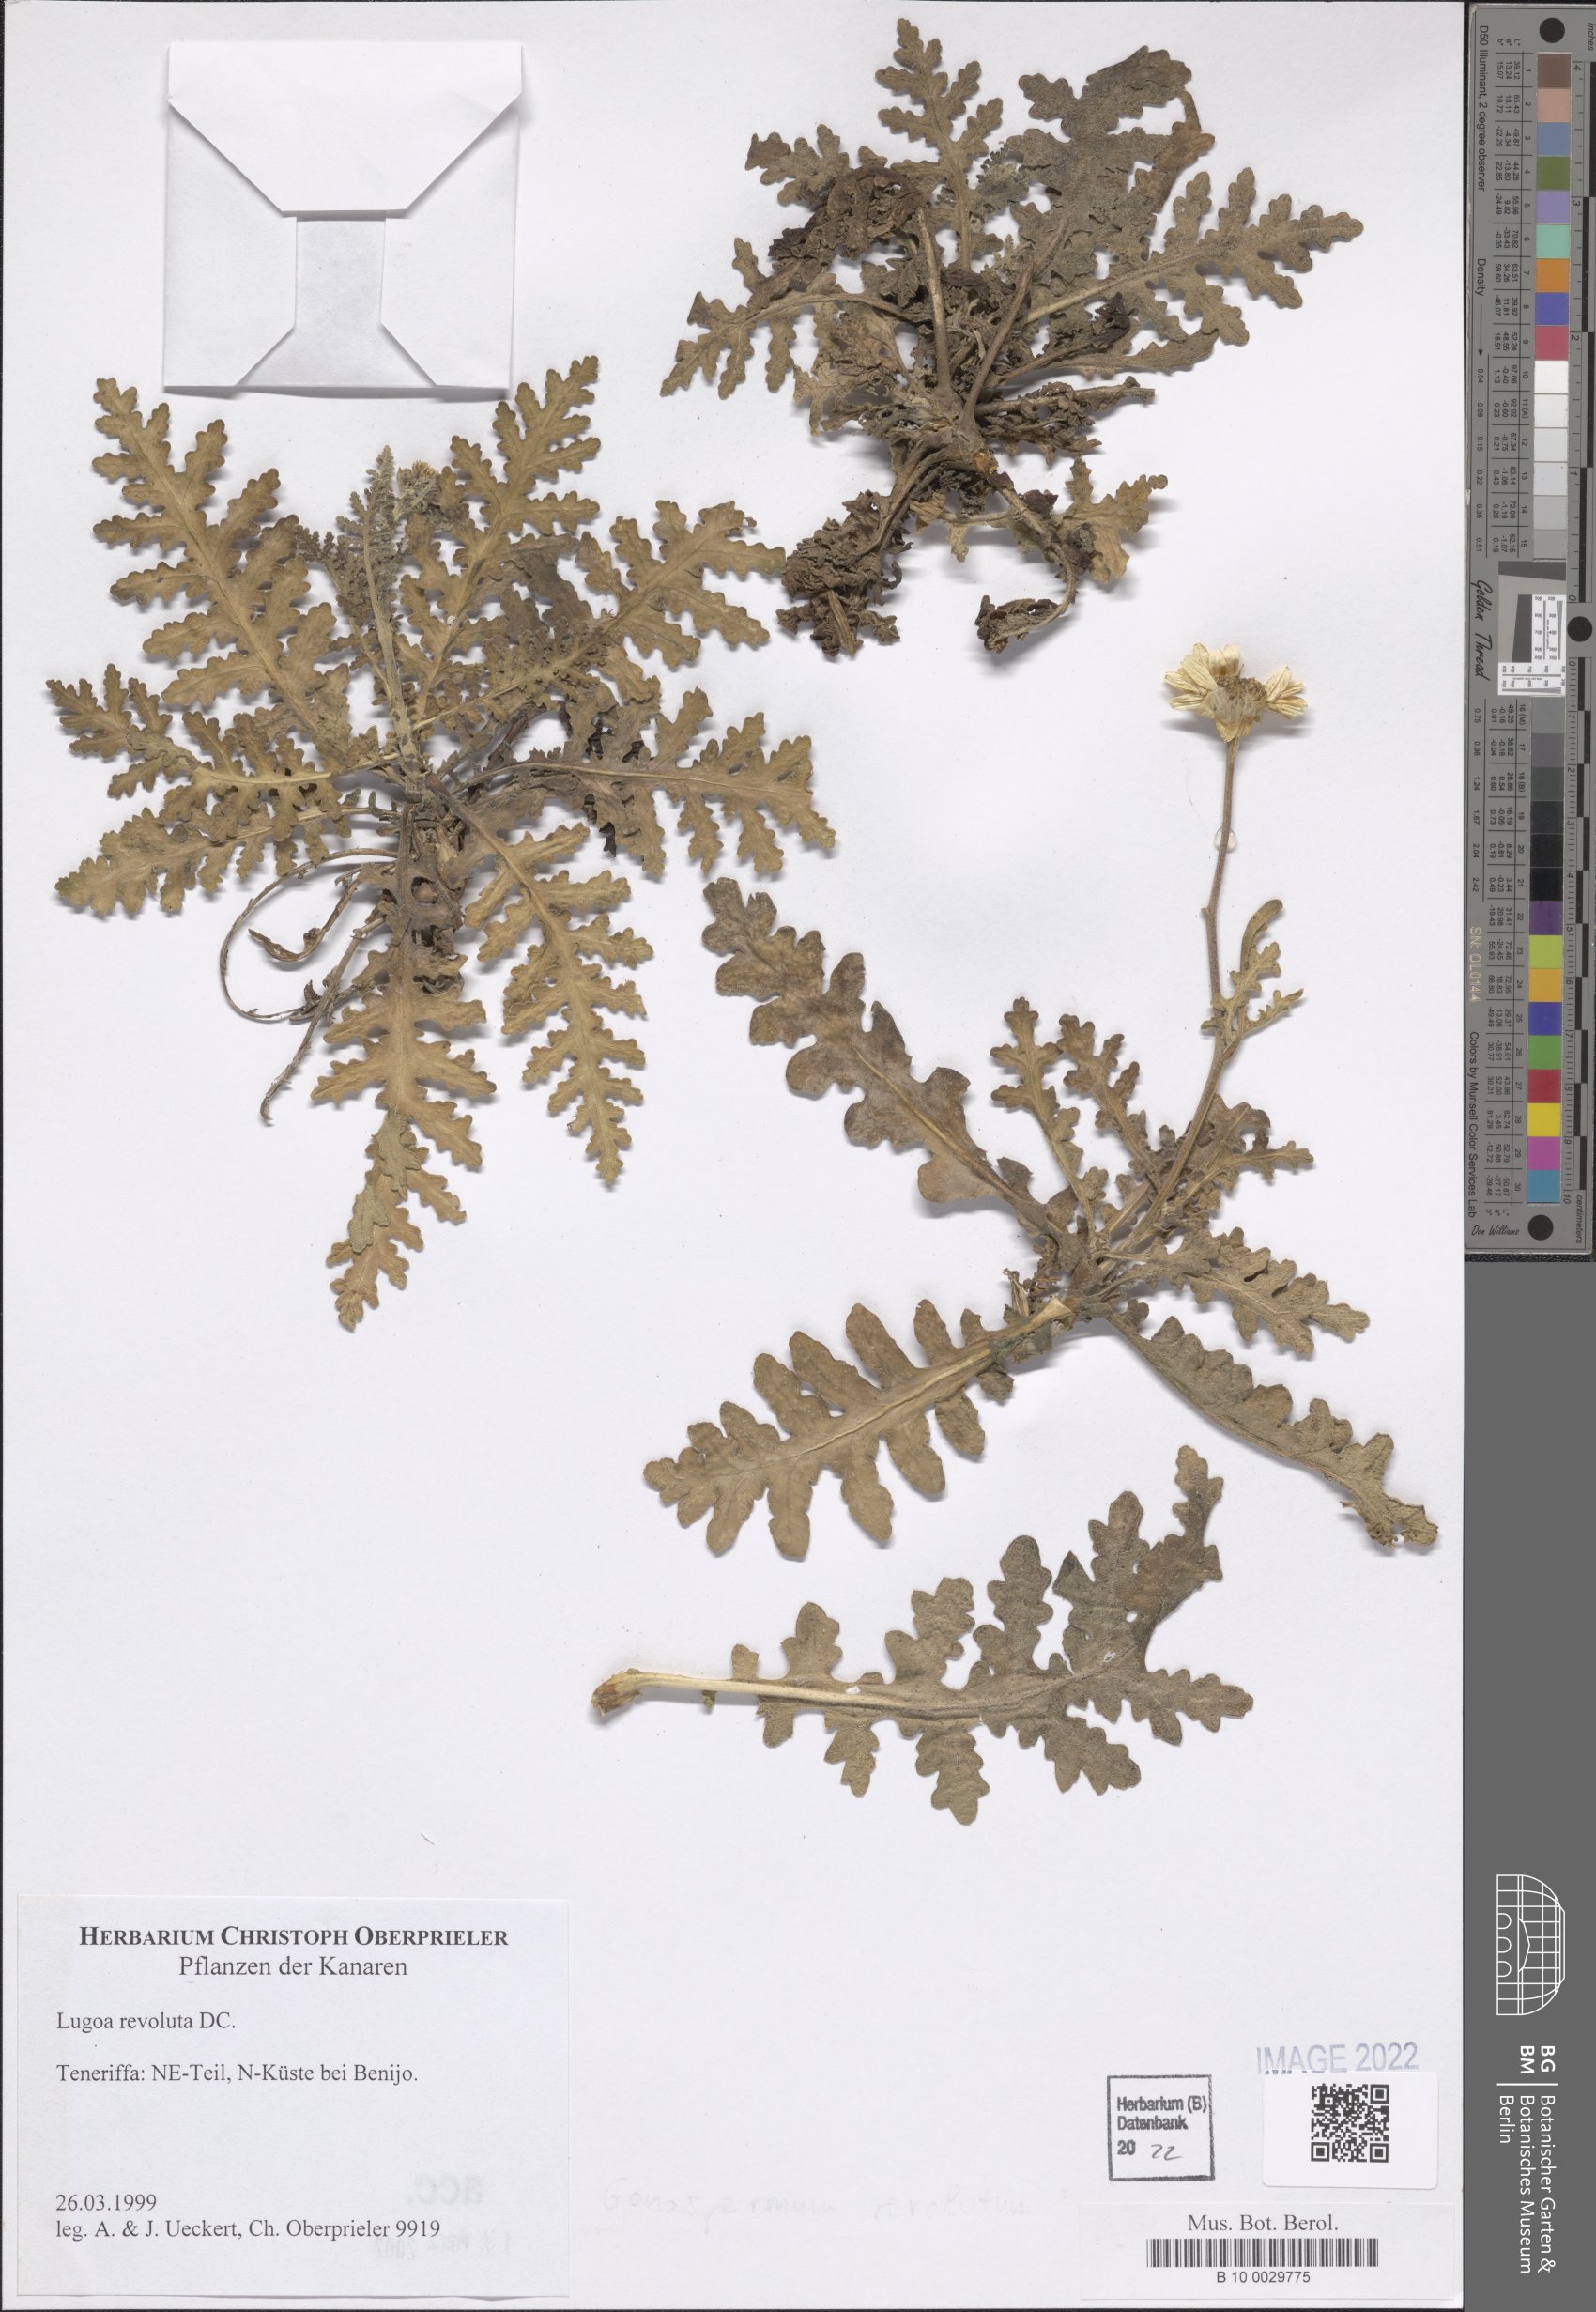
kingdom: Plantae
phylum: Tracheophyta
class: Magnoliopsida
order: Asterales
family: Asteraceae
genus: Gonospermum
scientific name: Gonospermum revolutum
